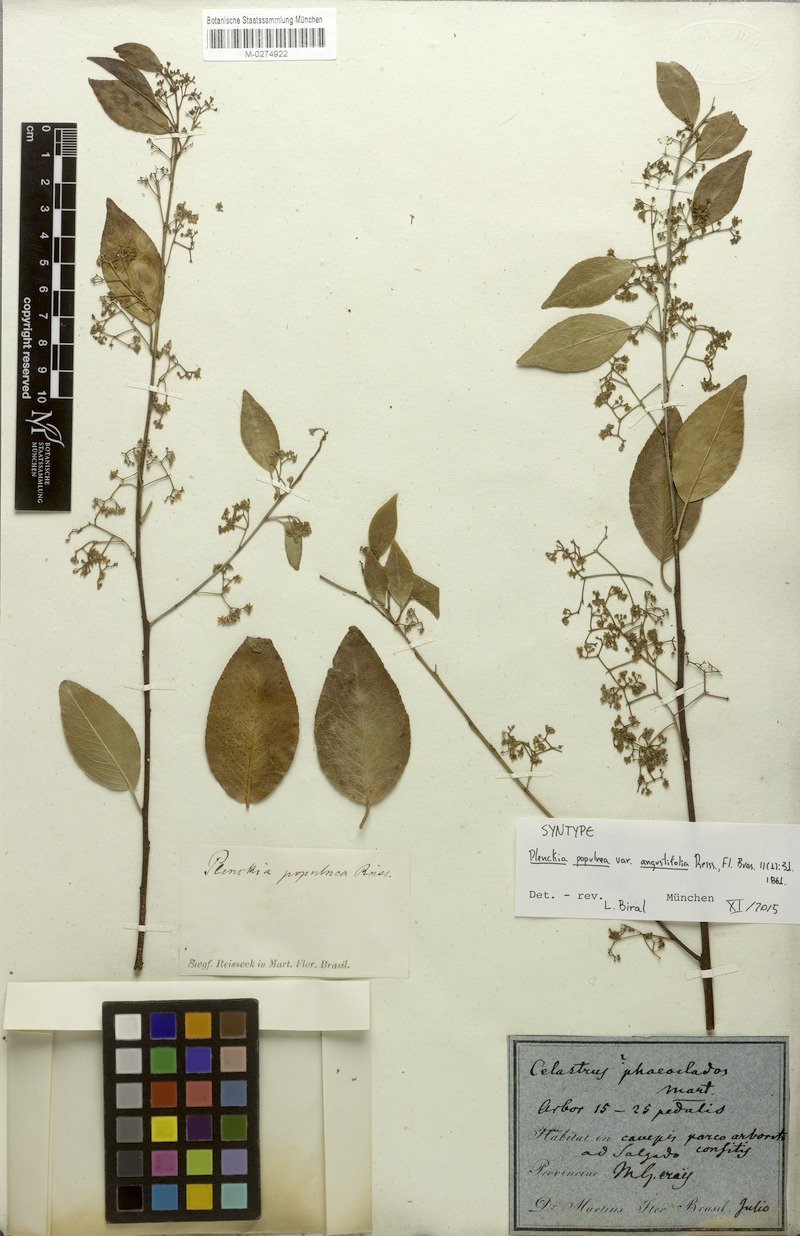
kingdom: Plantae
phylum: Tracheophyta
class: Magnoliopsida
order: Celastrales
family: Celastraceae
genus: Plenckia
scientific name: Plenckia populnea
